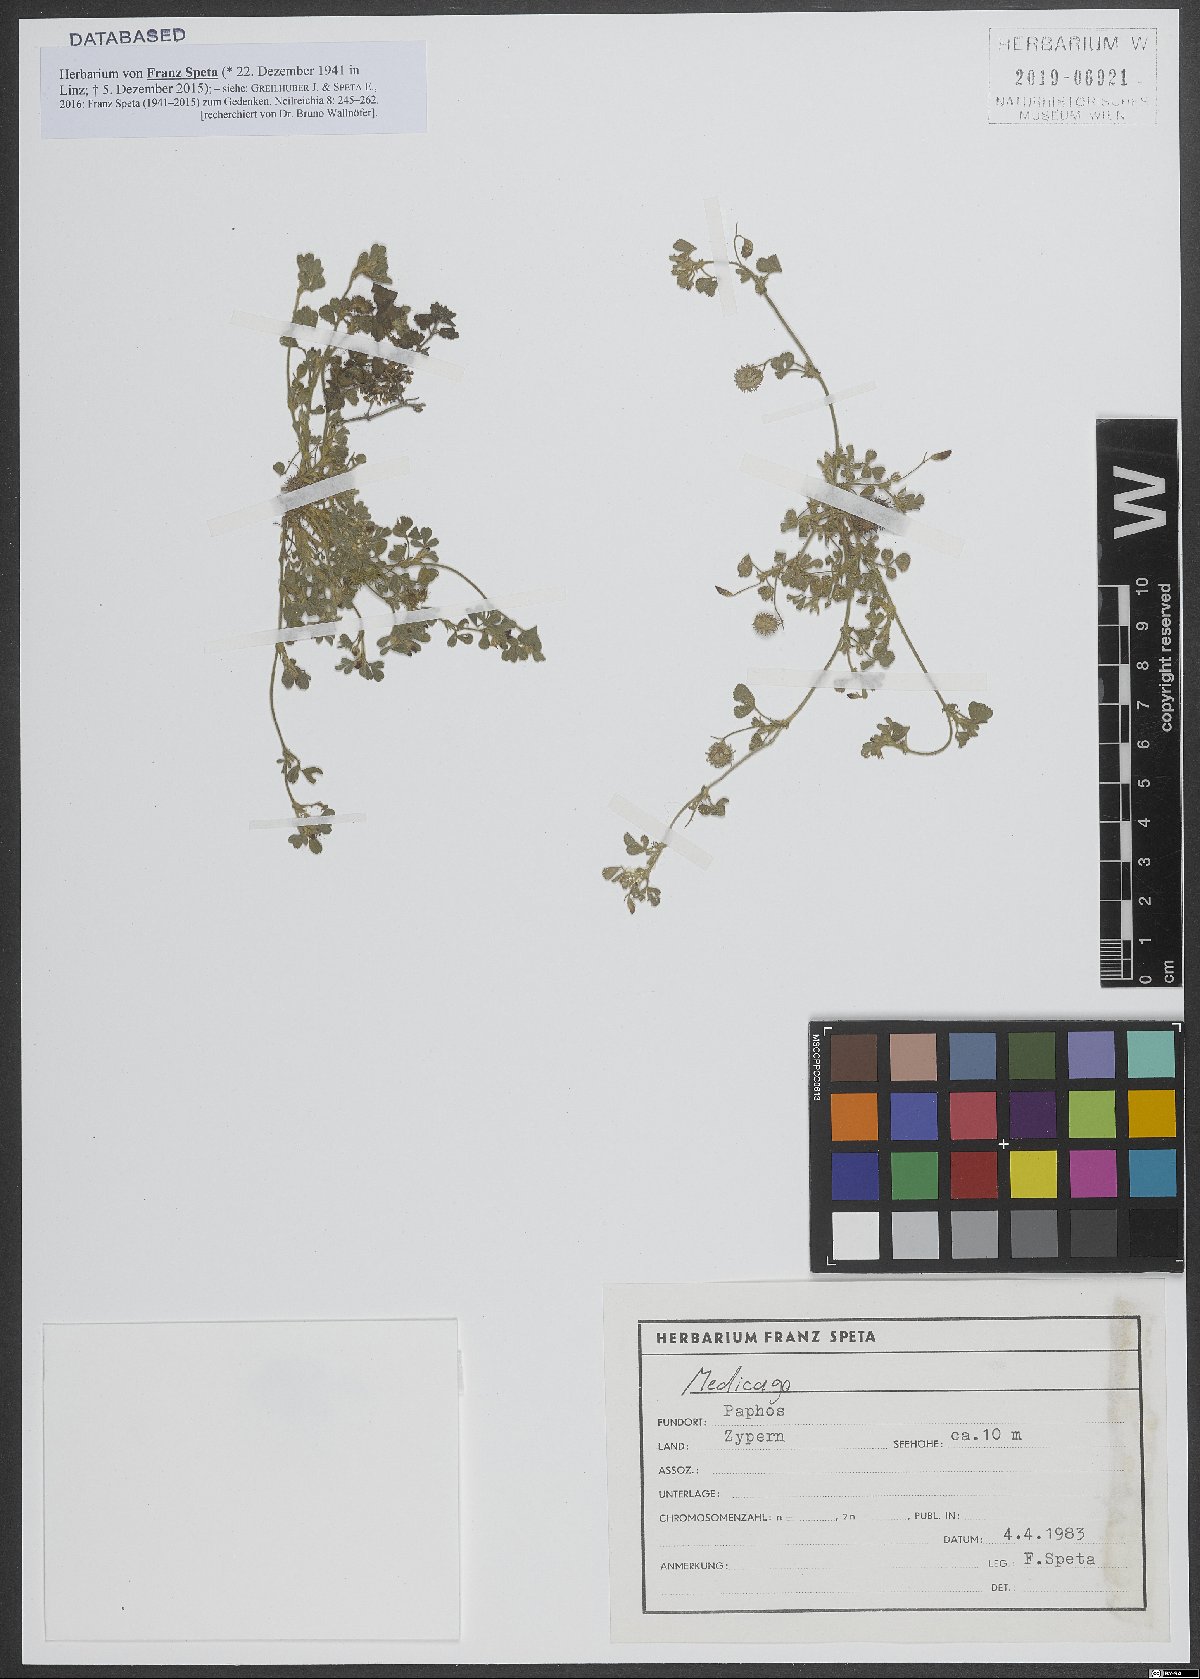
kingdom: Plantae
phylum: Tracheophyta
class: Magnoliopsida
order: Fabales
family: Fabaceae
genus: Medicago
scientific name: Medicago
